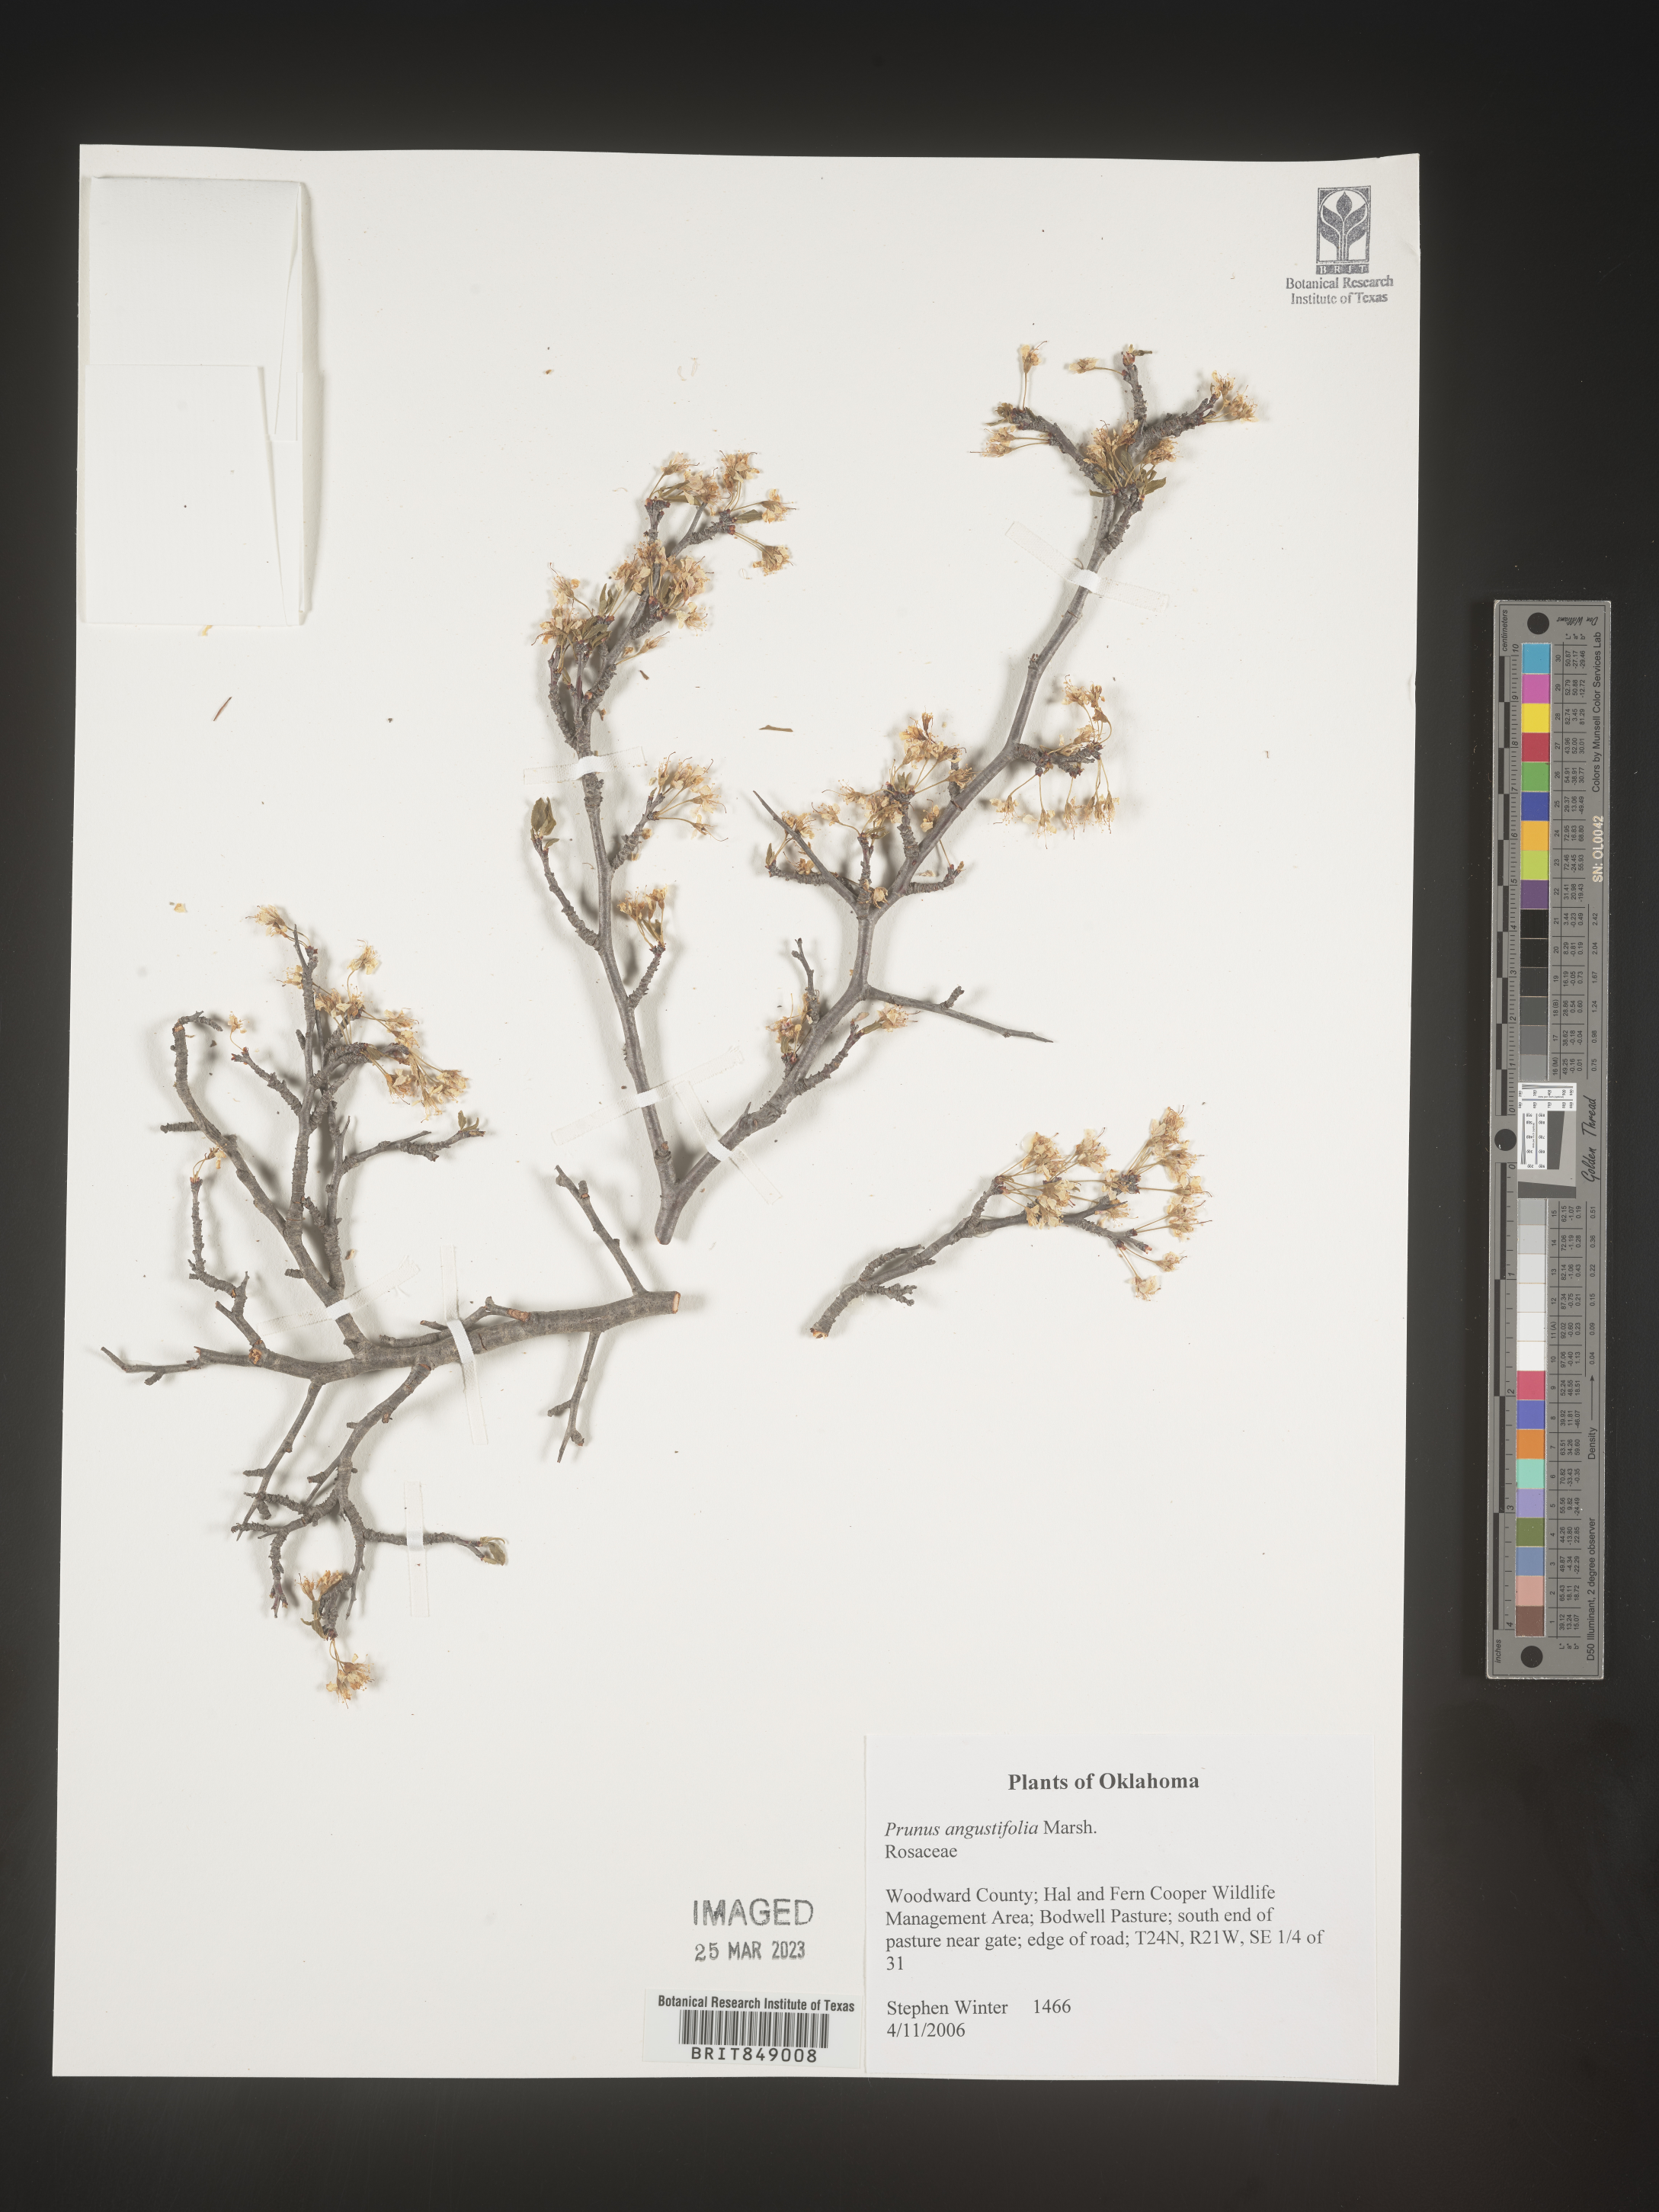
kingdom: Plantae
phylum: Tracheophyta
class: Magnoliopsida
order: Rosales
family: Rosaceae
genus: Prunus
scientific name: Prunus angustifolia
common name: Cherokee plum
